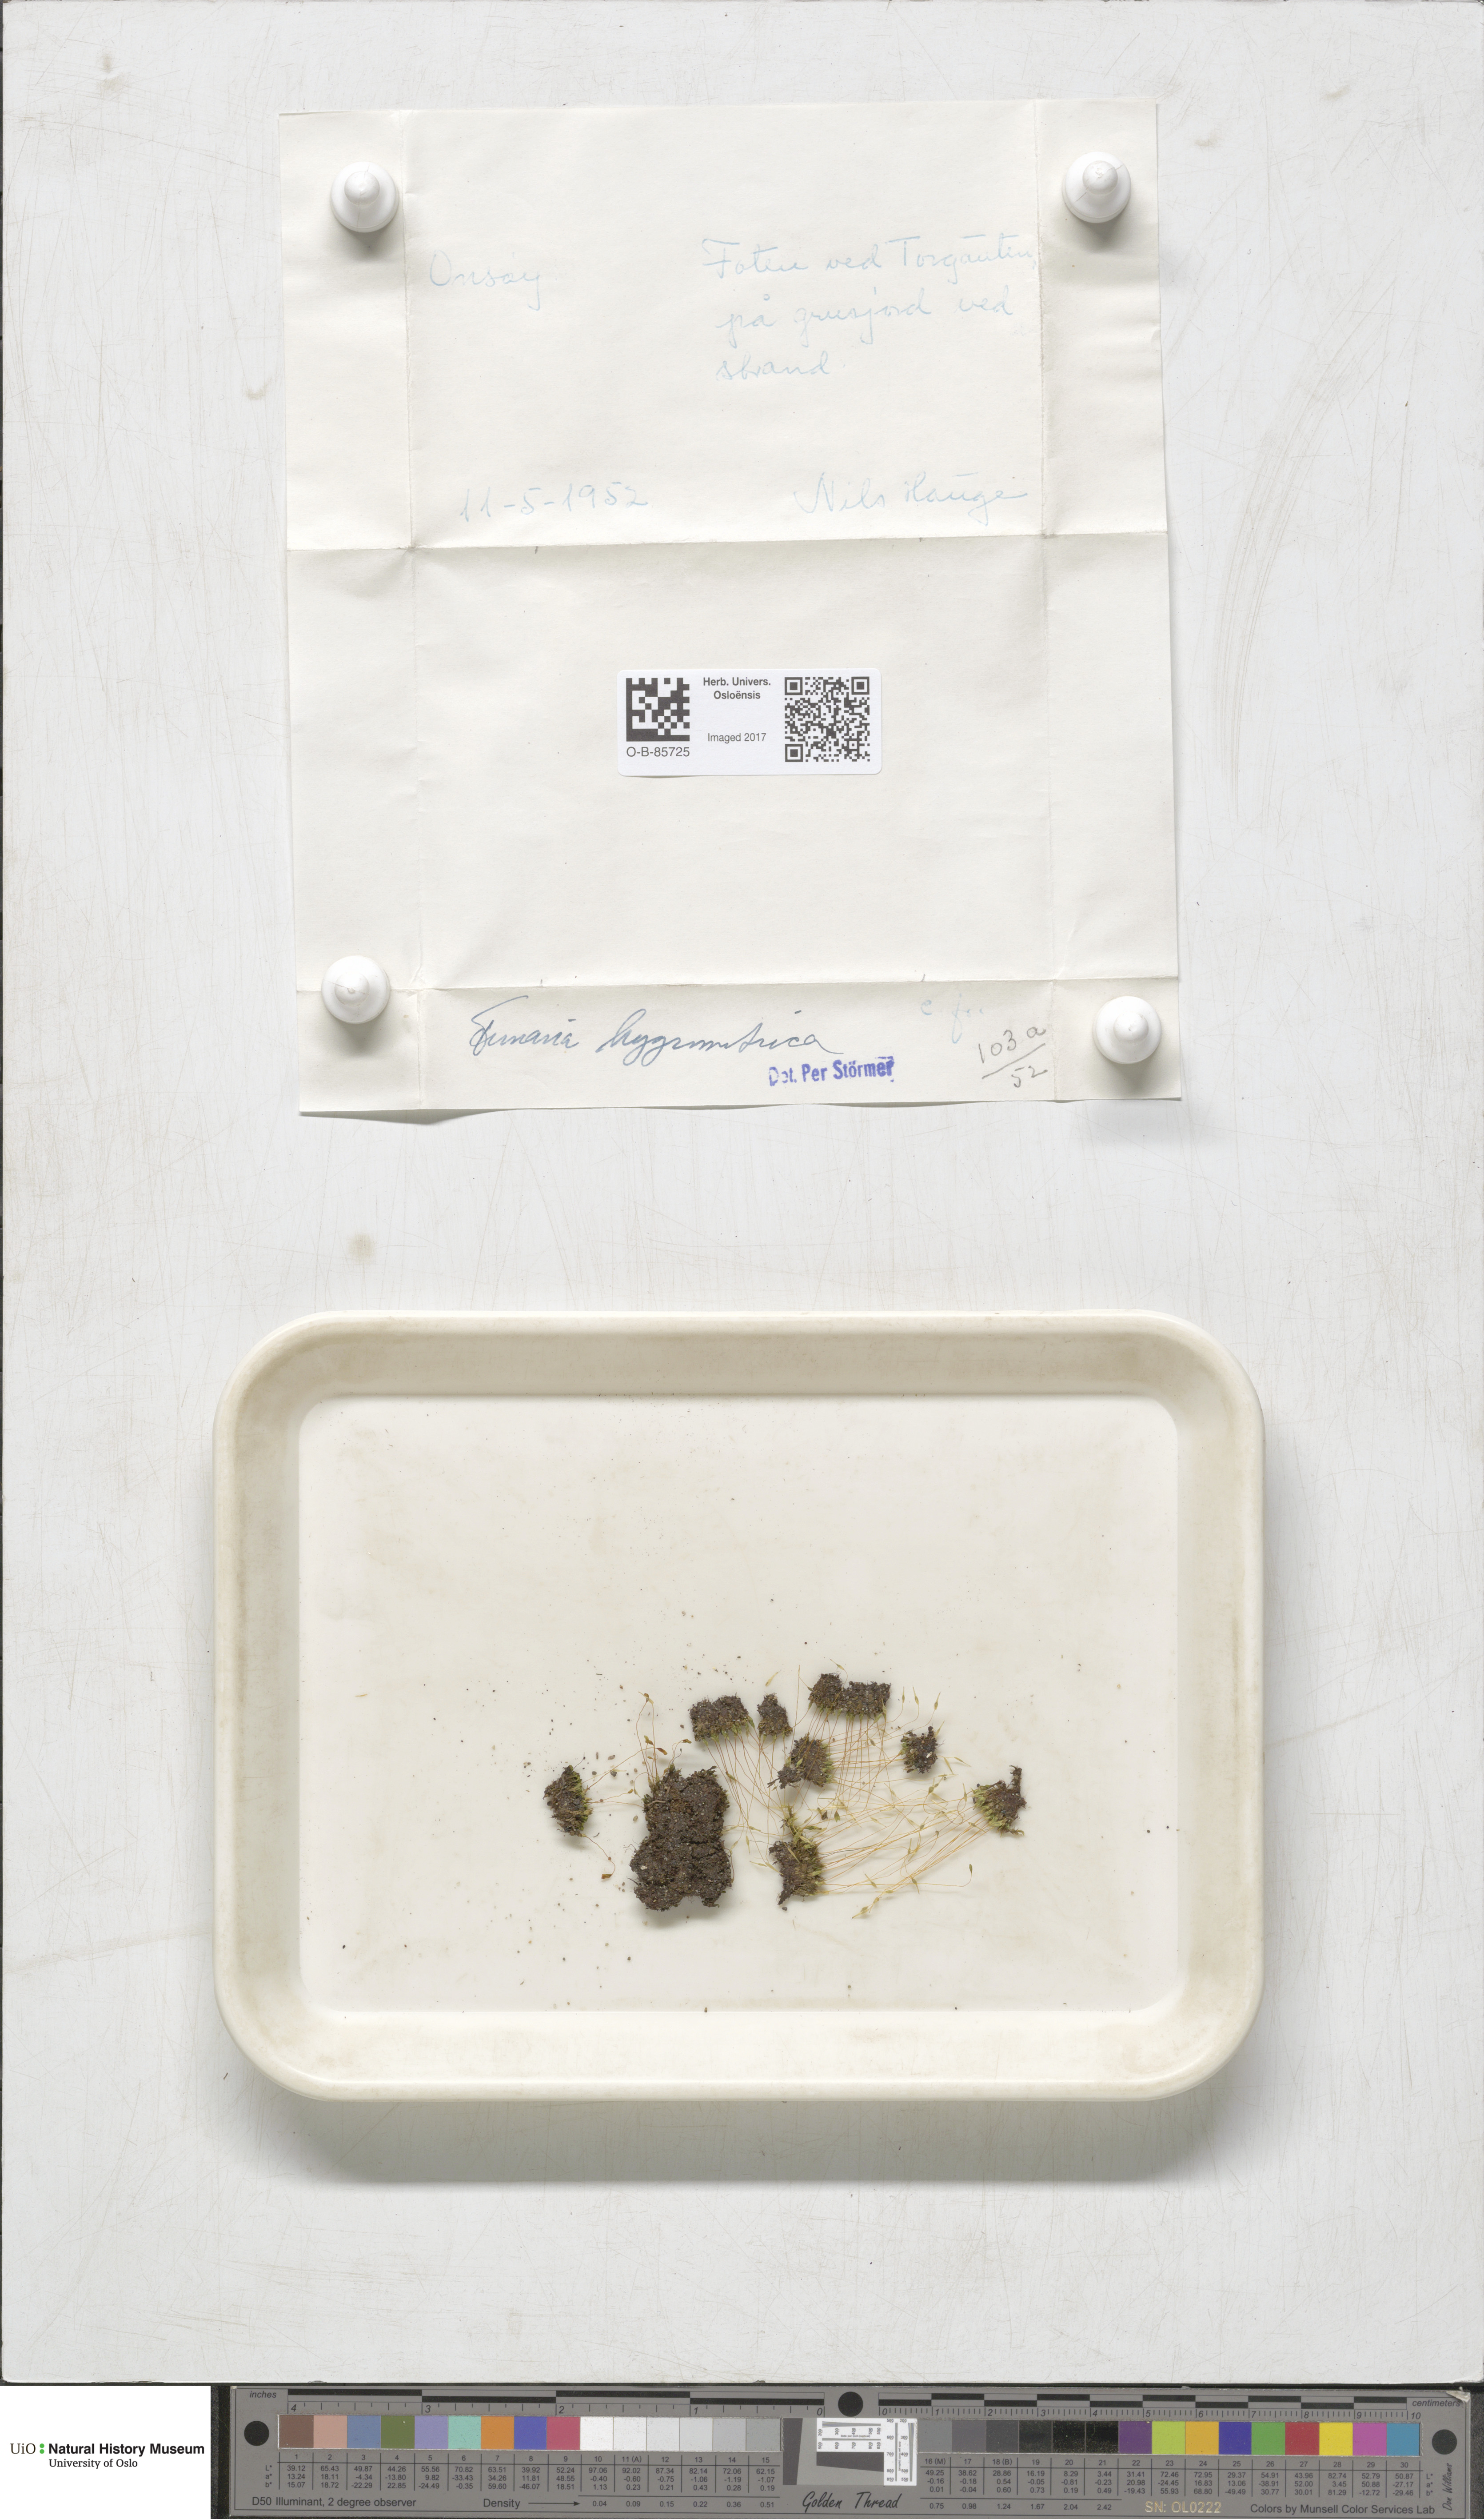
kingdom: Plantae
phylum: Bryophyta
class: Bryopsida
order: Funariales
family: Funariaceae
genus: Funaria
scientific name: Funaria hygrometrica
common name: Common cord moss
